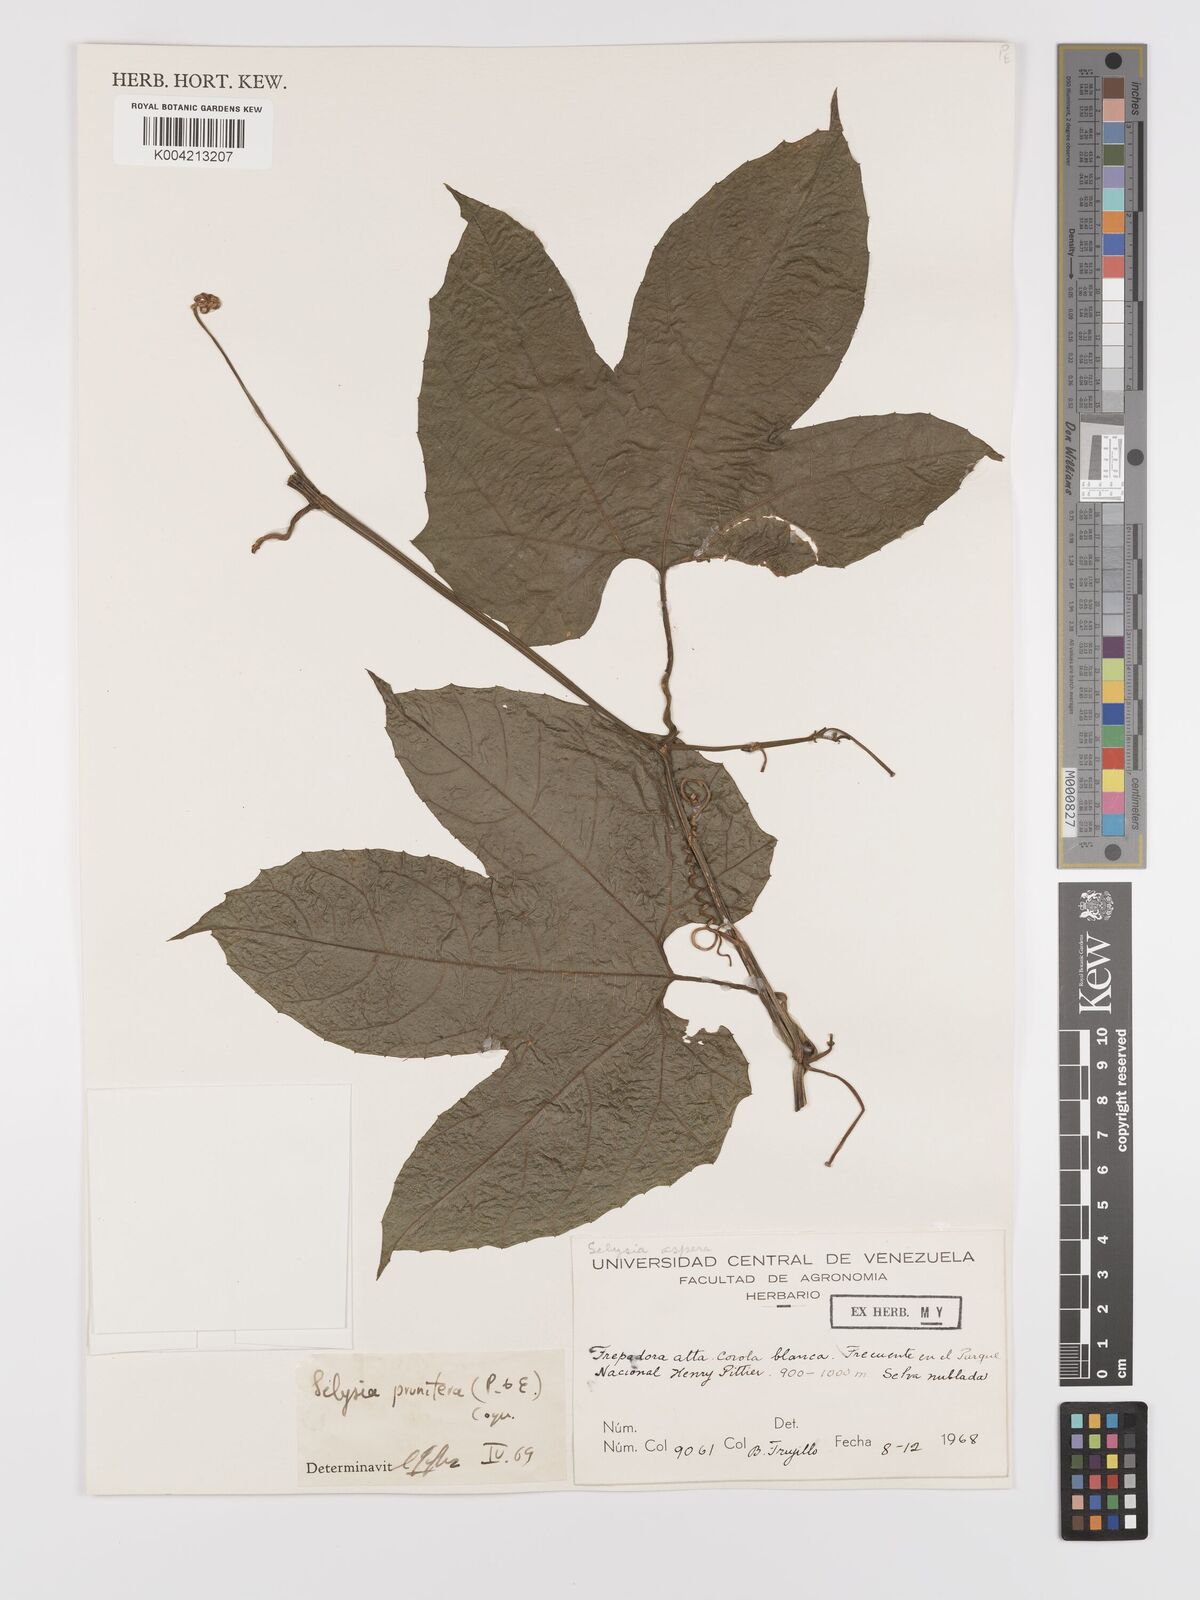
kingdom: Plantae
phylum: Tracheophyta
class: Magnoliopsida
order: Cucurbitales
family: Cucurbitaceae
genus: Cayaponia
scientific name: Cayaponia prunifera
